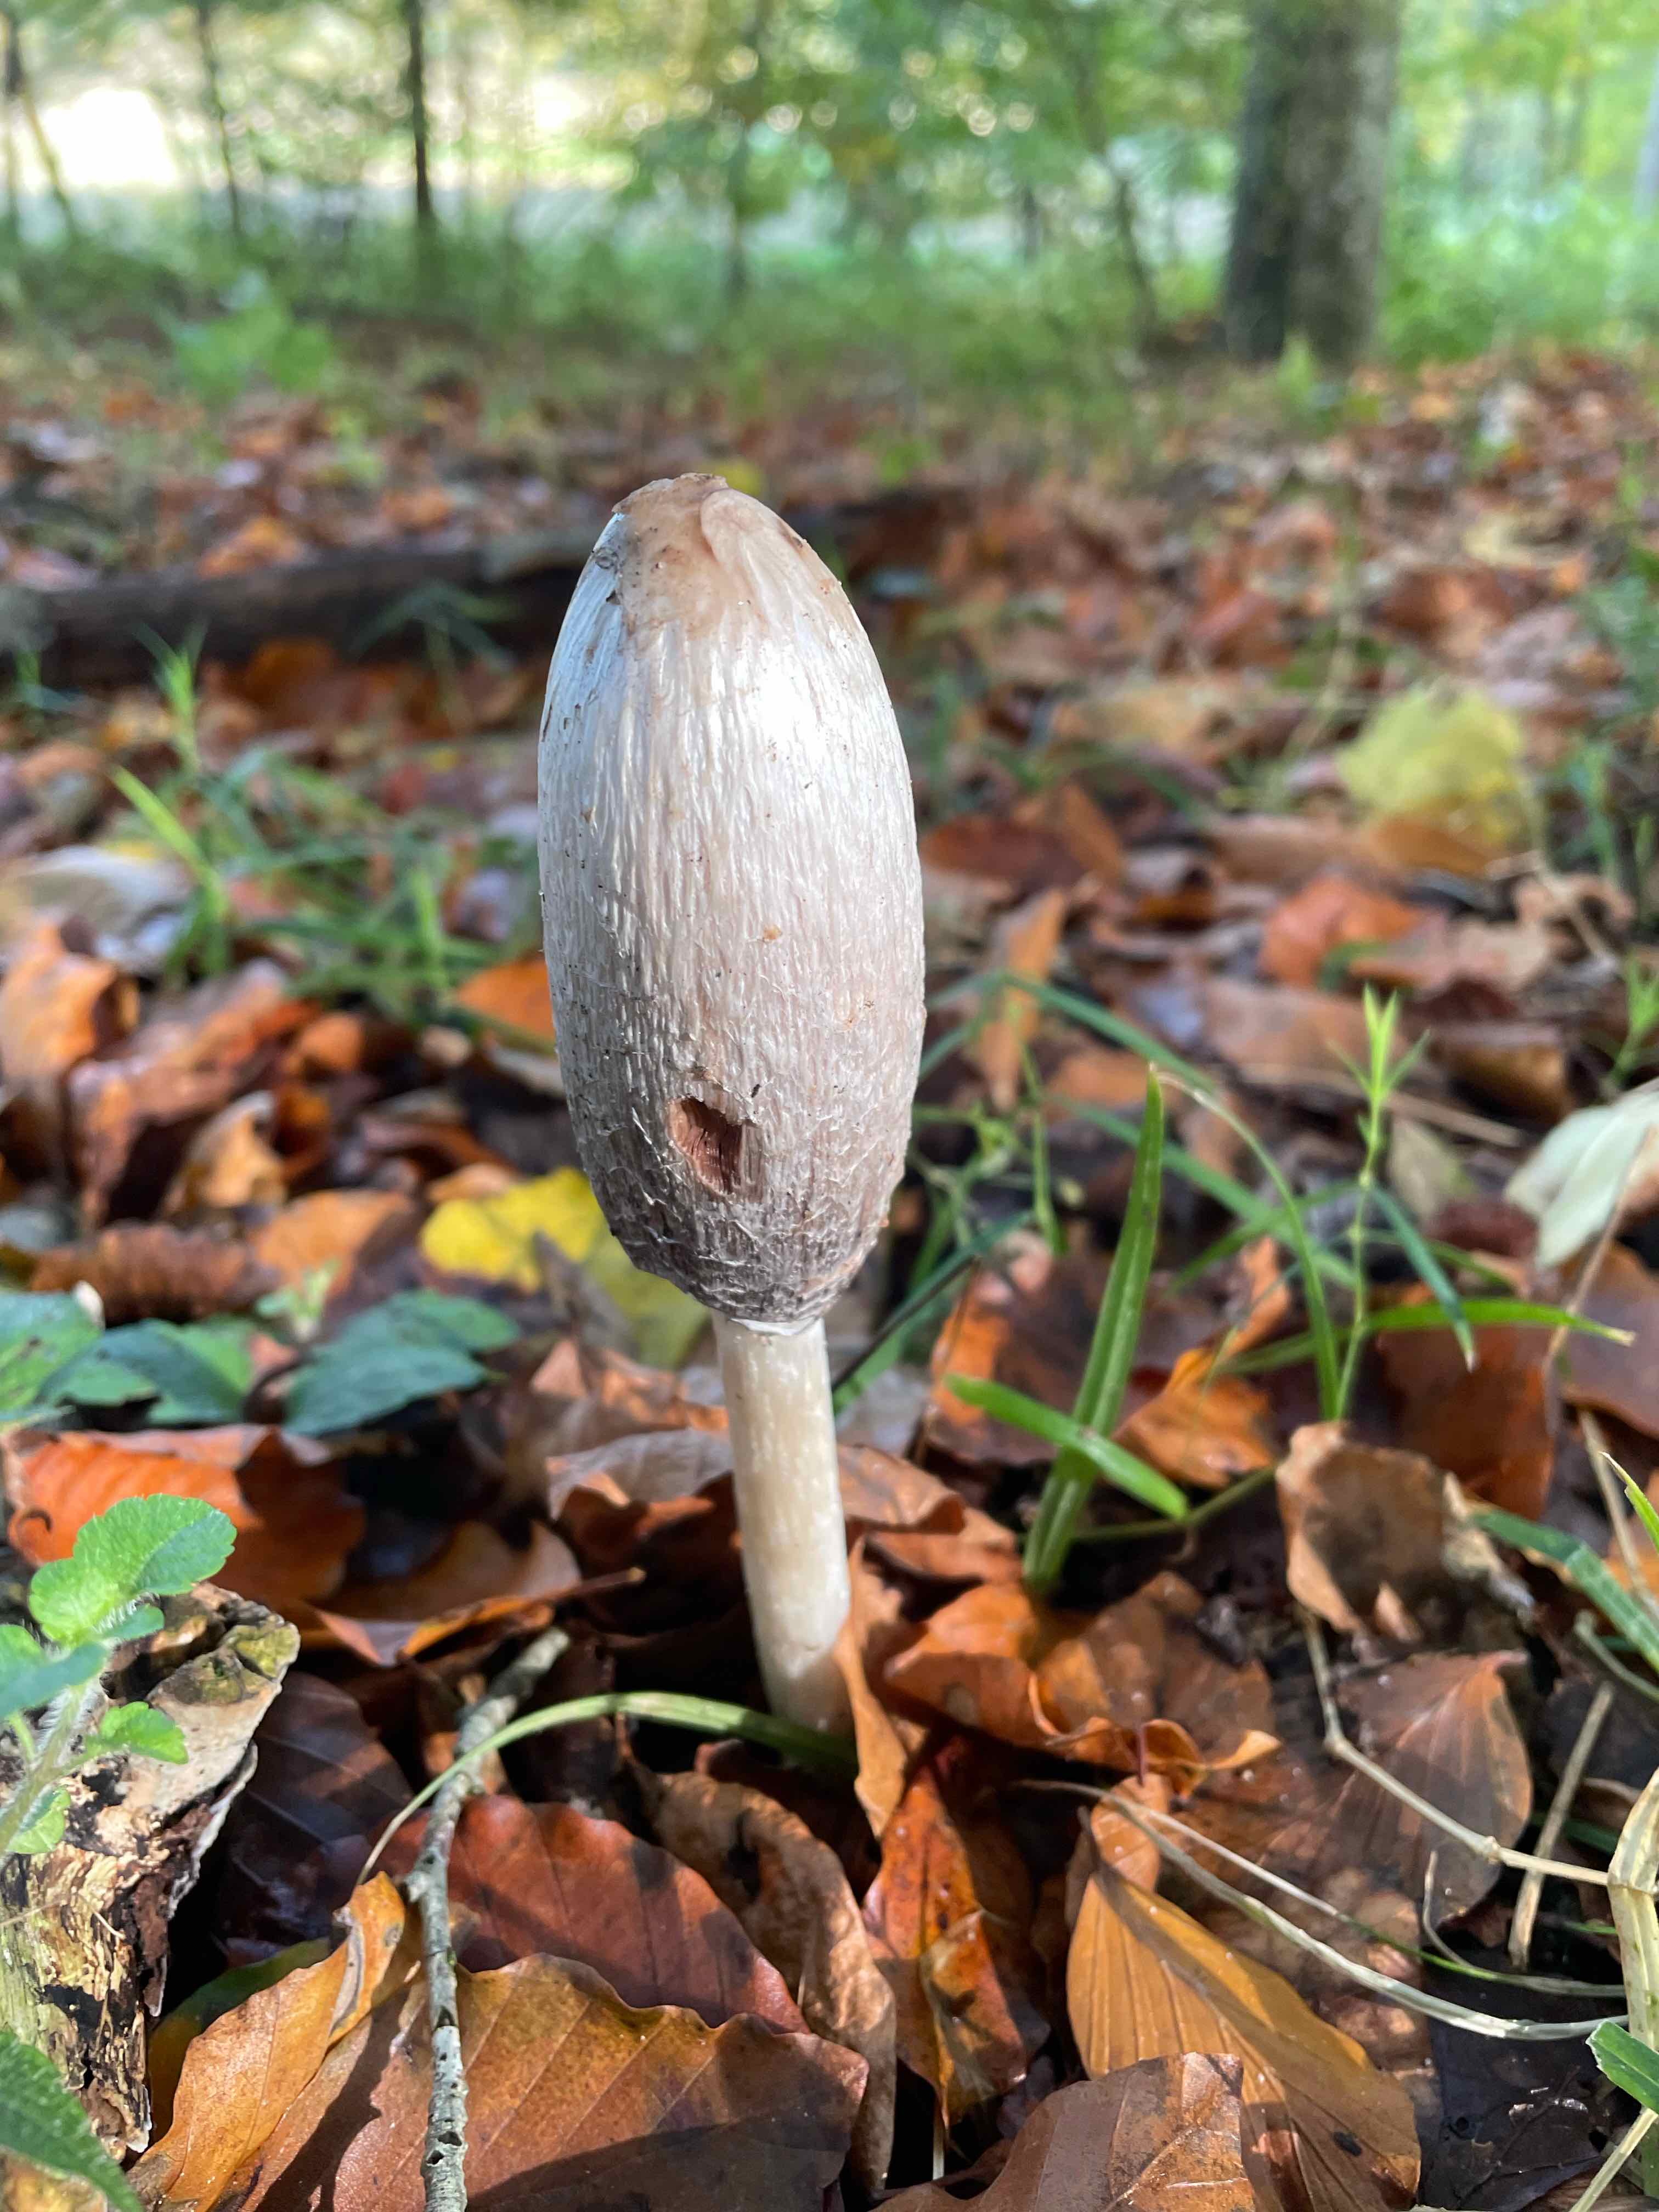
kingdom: Fungi
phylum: Basidiomycota
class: Agaricomycetes
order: Agaricales
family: Agaricaceae
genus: Coprinus
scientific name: Coprinus comatus
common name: stor parykhat
